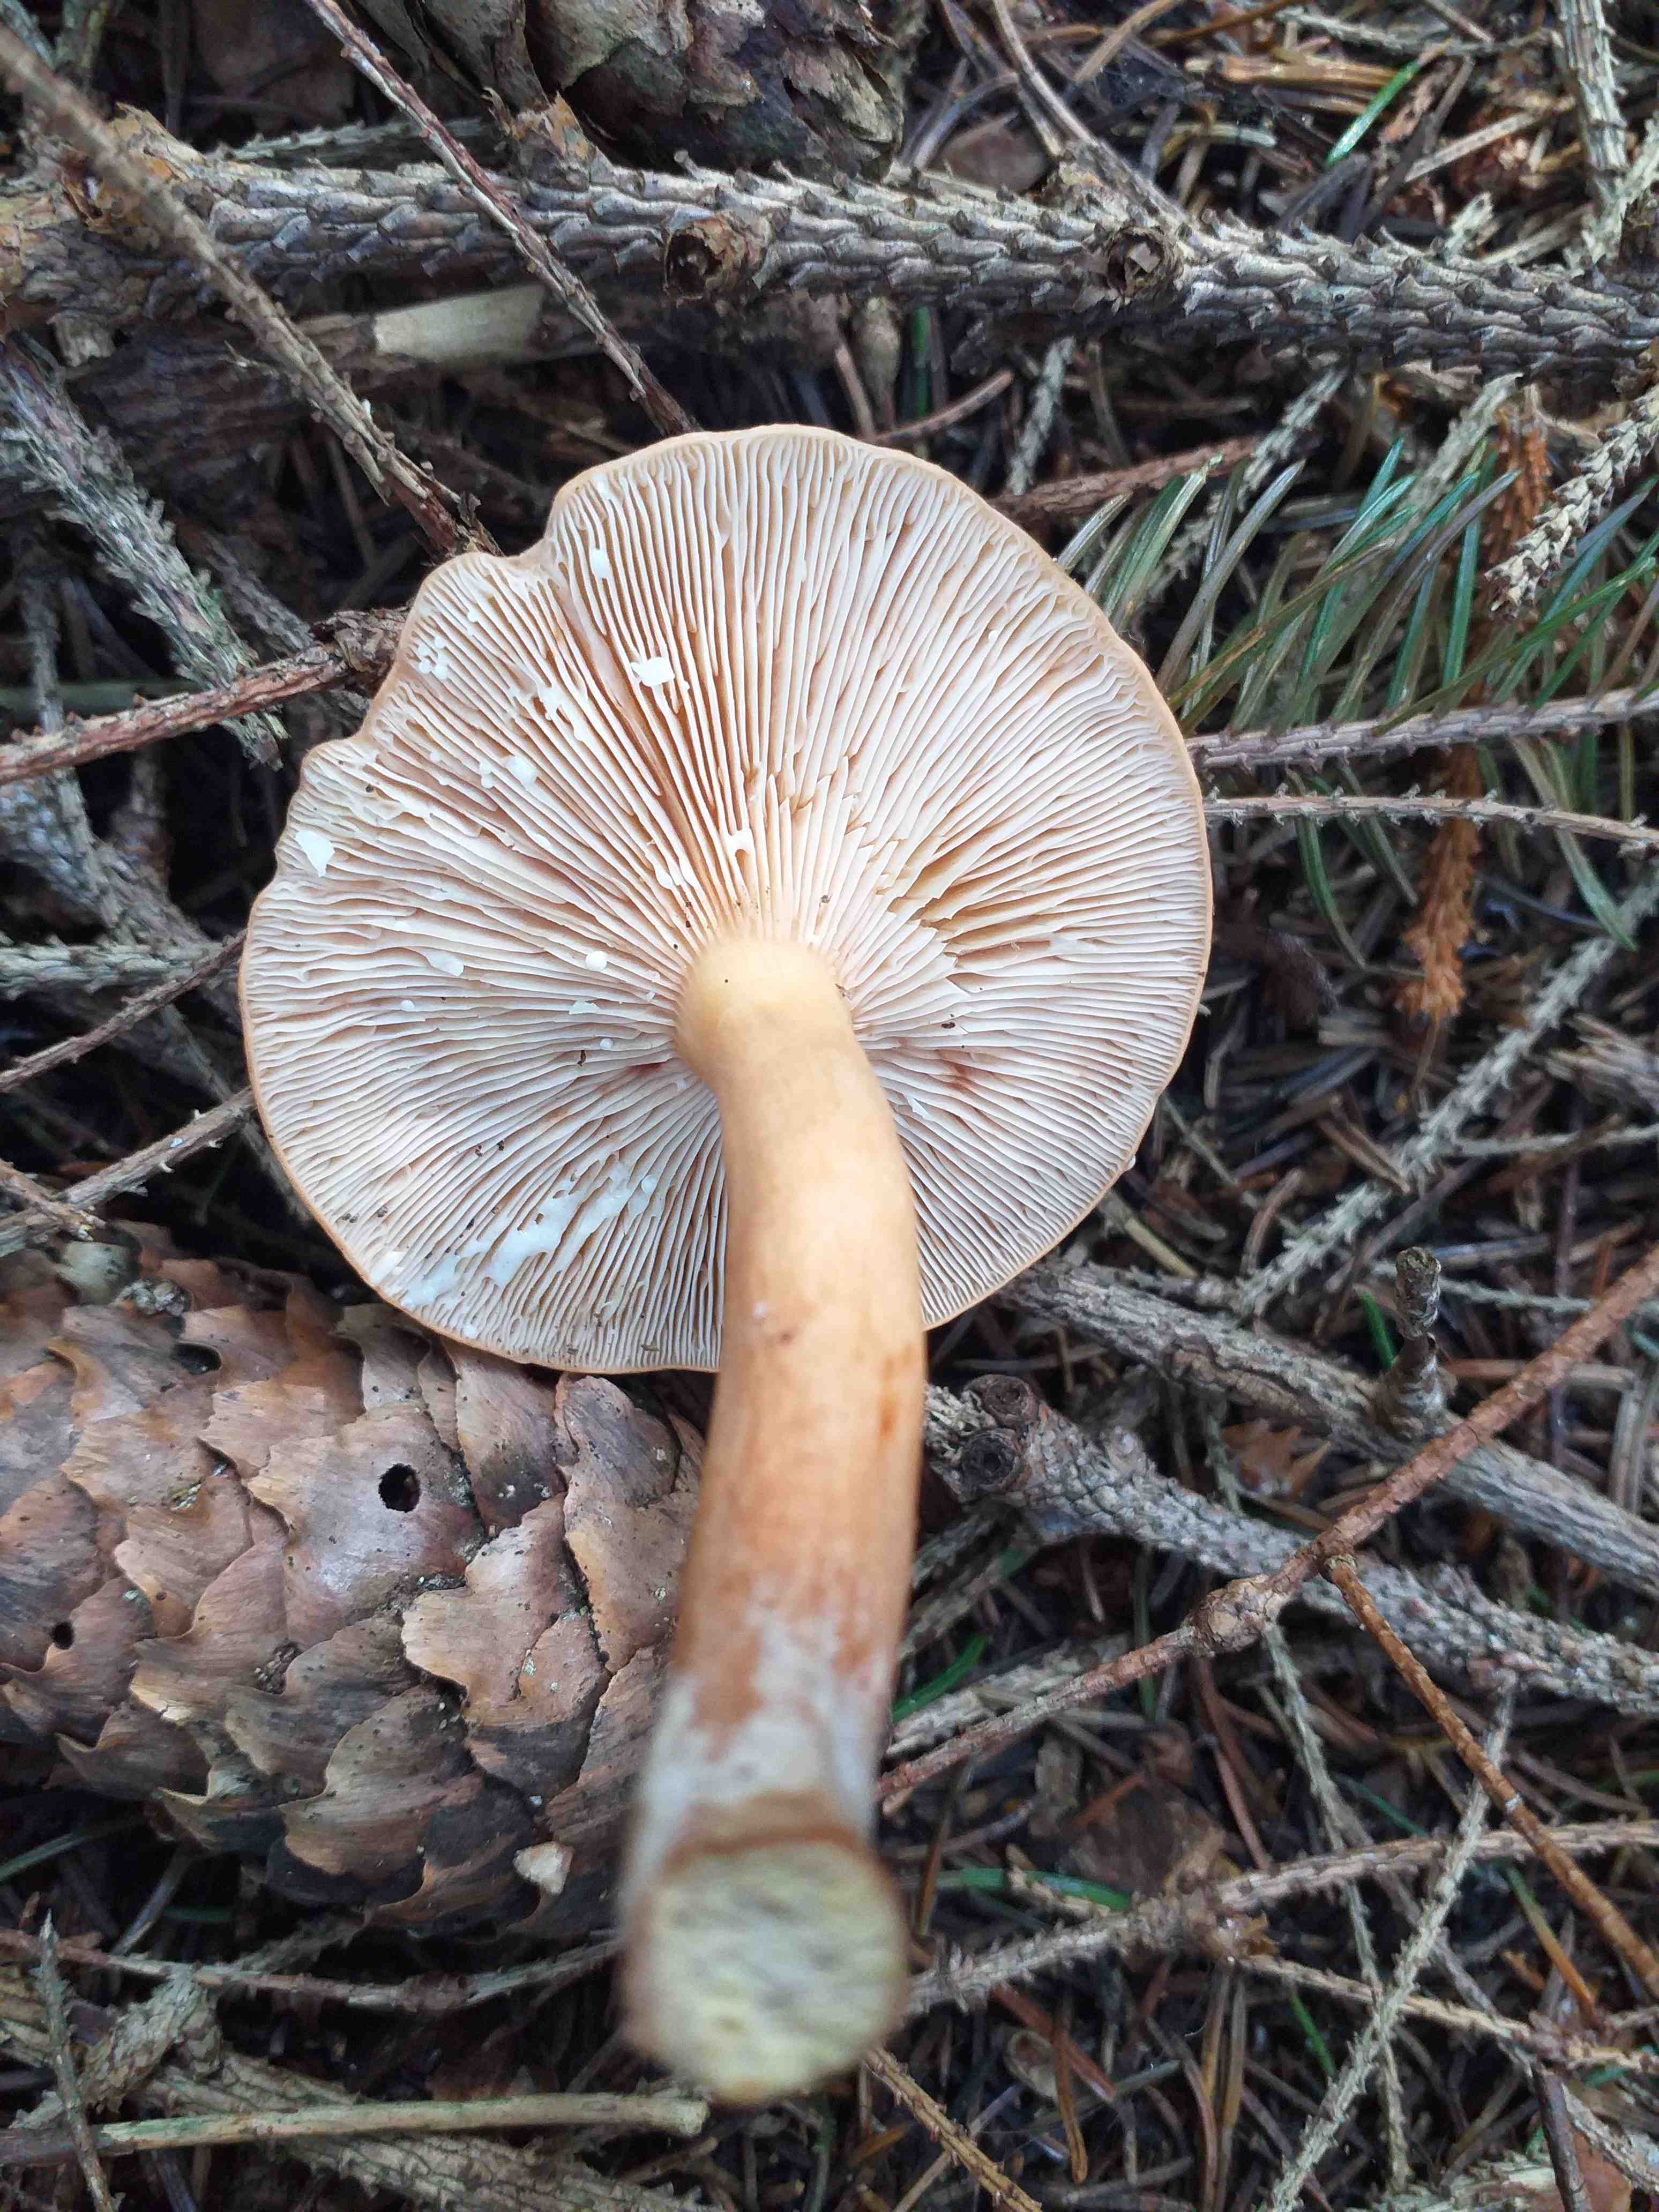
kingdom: Fungi
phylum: Basidiomycota
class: Agaricomycetes
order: Russulales
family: Russulaceae
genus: Lactarius
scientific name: Lactarius tabidus
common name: rynket mælkehat
